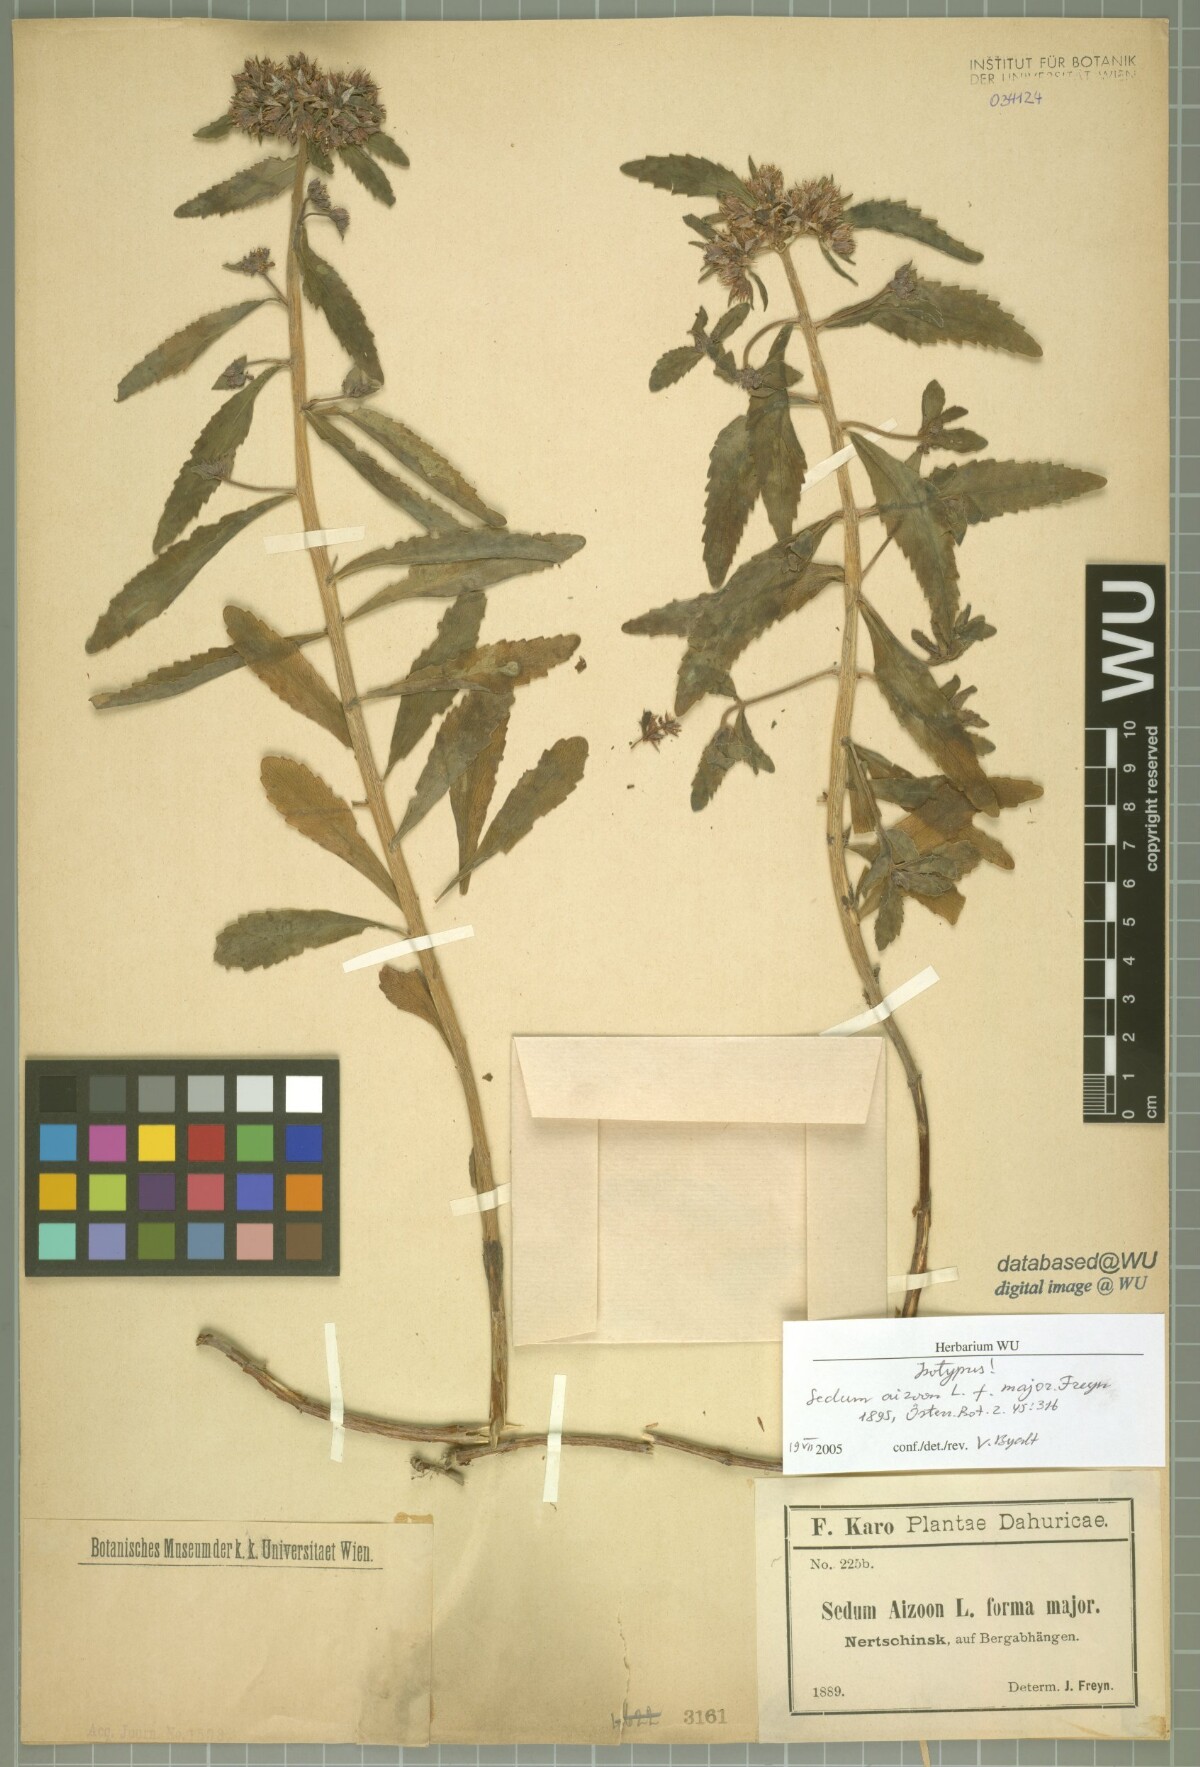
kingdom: Plantae
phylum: Tracheophyta
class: Magnoliopsida
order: Saxifragales
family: Crassulaceae
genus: Sedum
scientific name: Sedum aizoon
